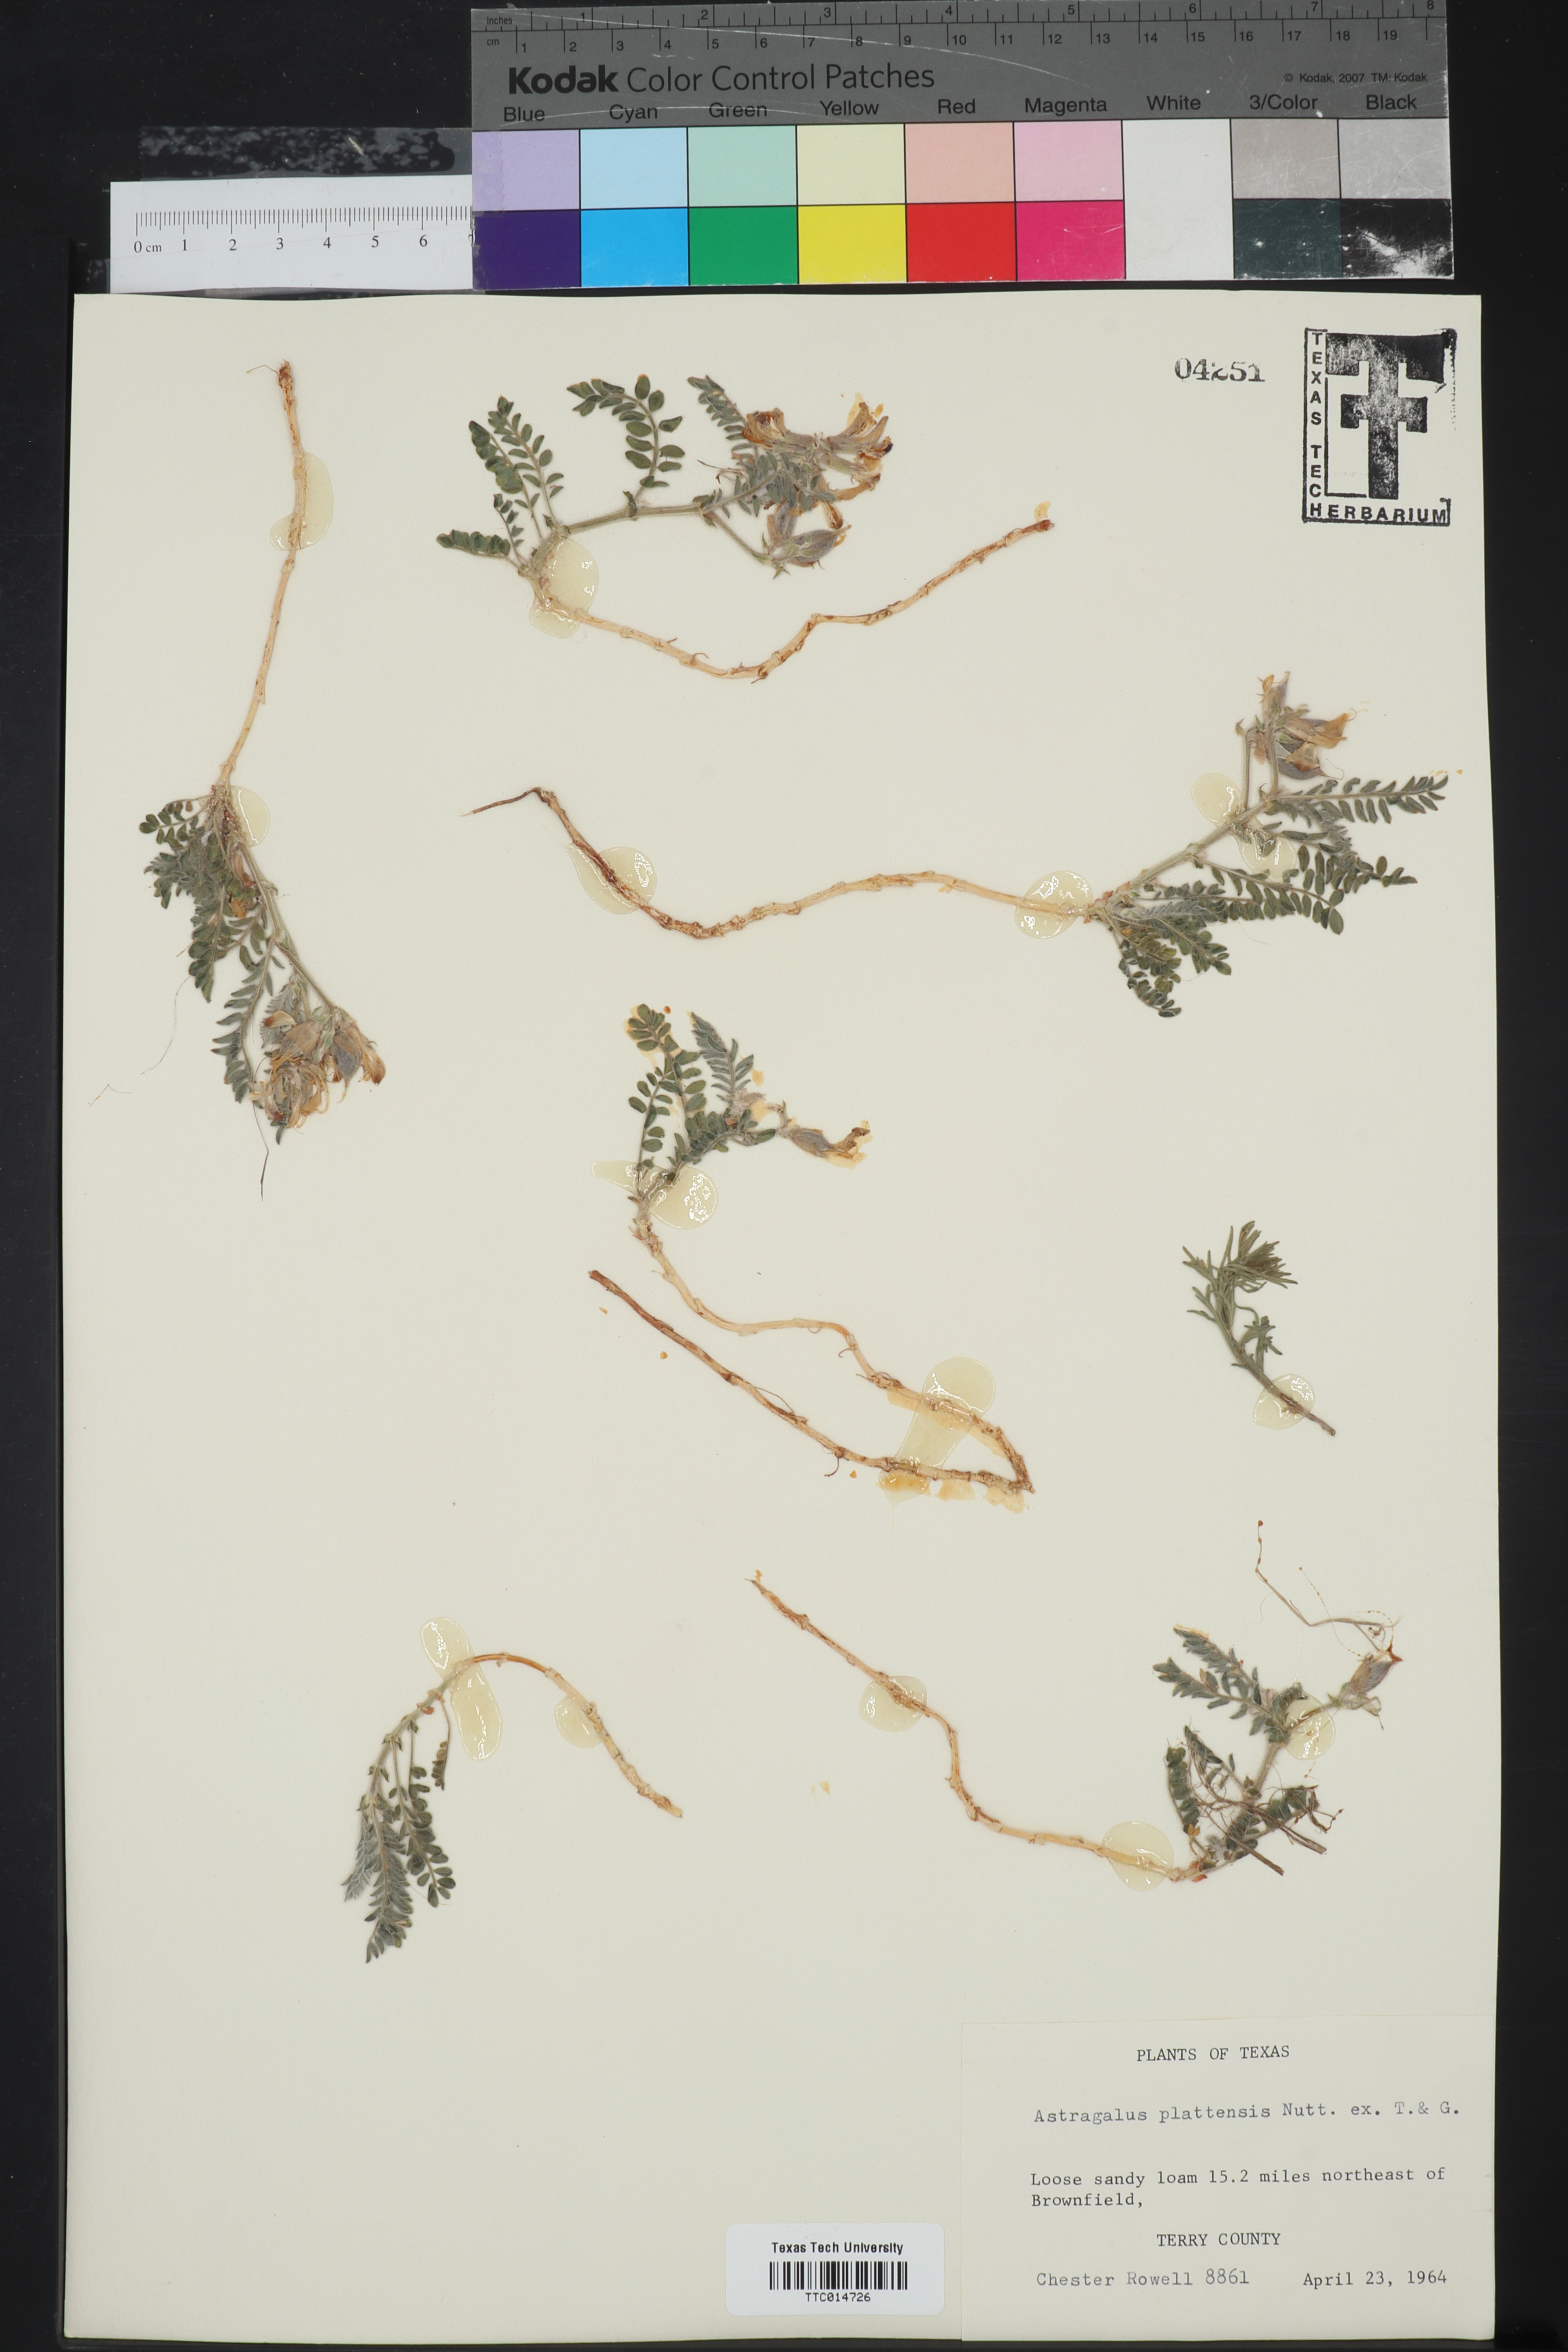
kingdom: Plantae
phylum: Tracheophyta
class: Magnoliopsida
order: Fabales
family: Fabaceae
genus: Astragalus
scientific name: Astragalus plattensis
